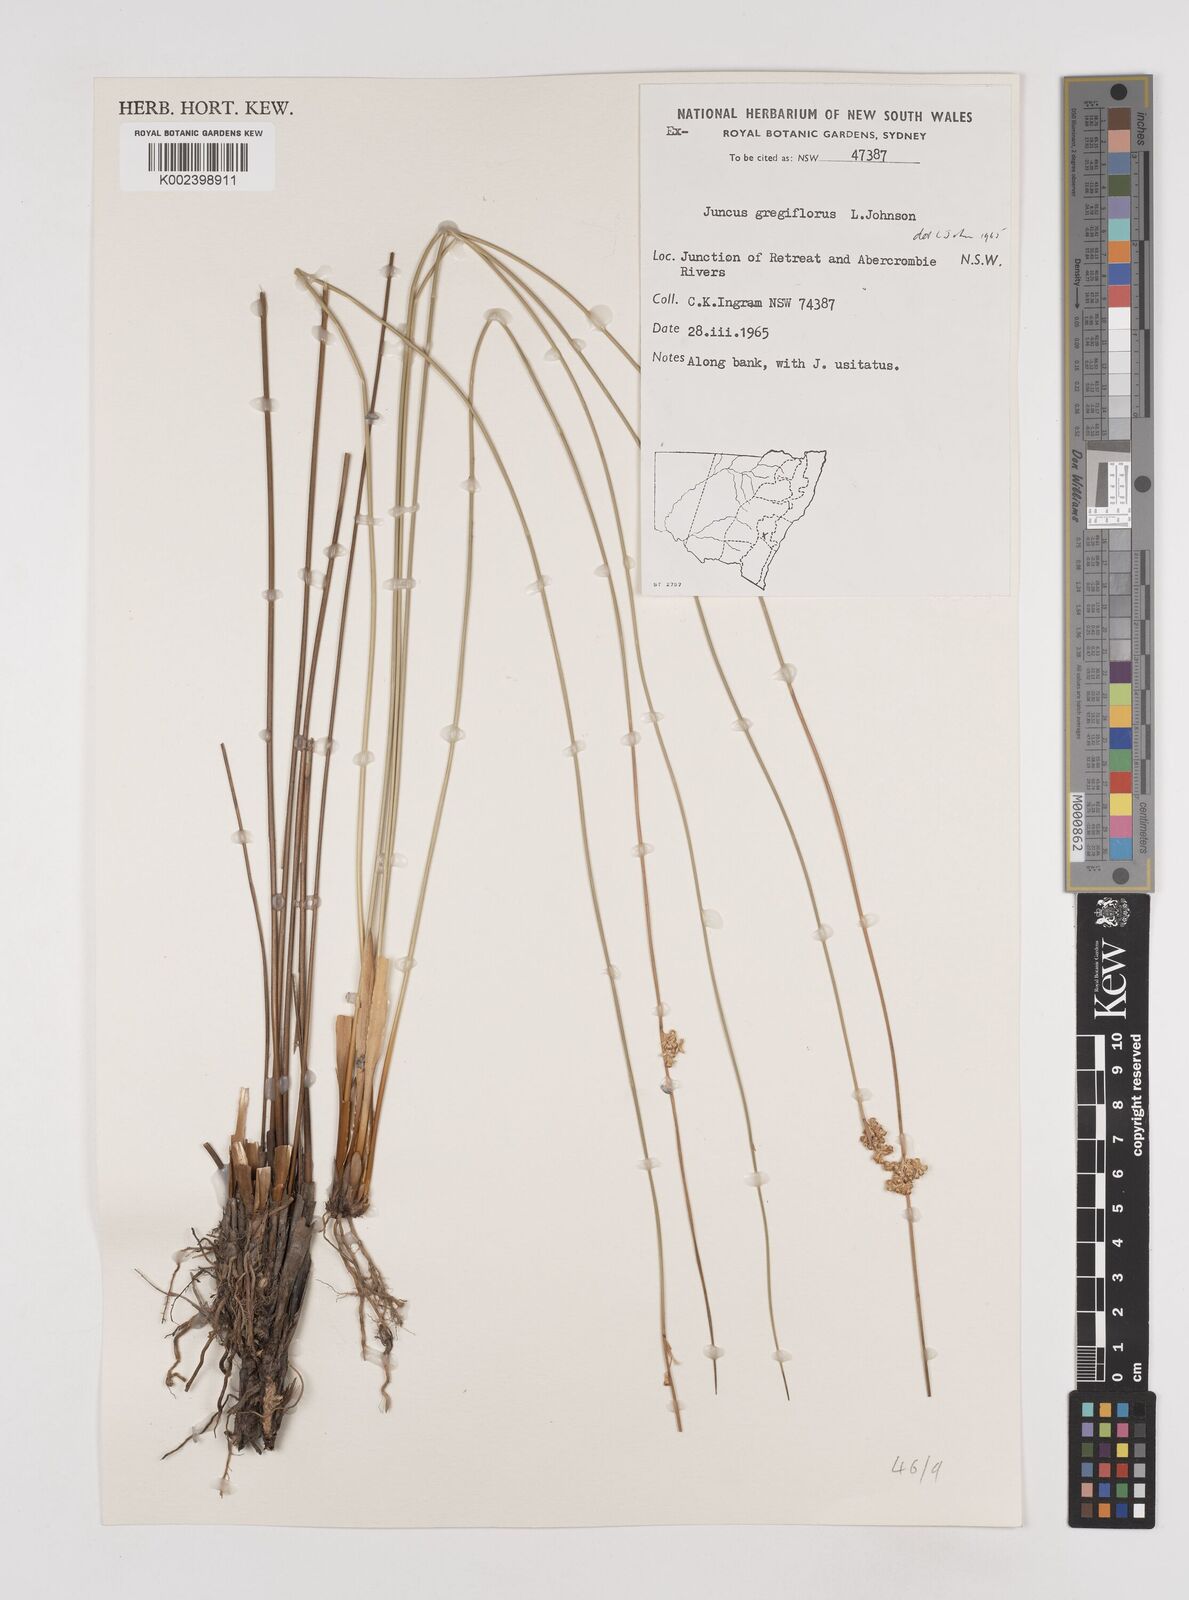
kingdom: Plantae
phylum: Tracheophyta
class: Liliopsida
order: Poales
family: Juncaceae
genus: Juncus
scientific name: Juncus gregiflorus
